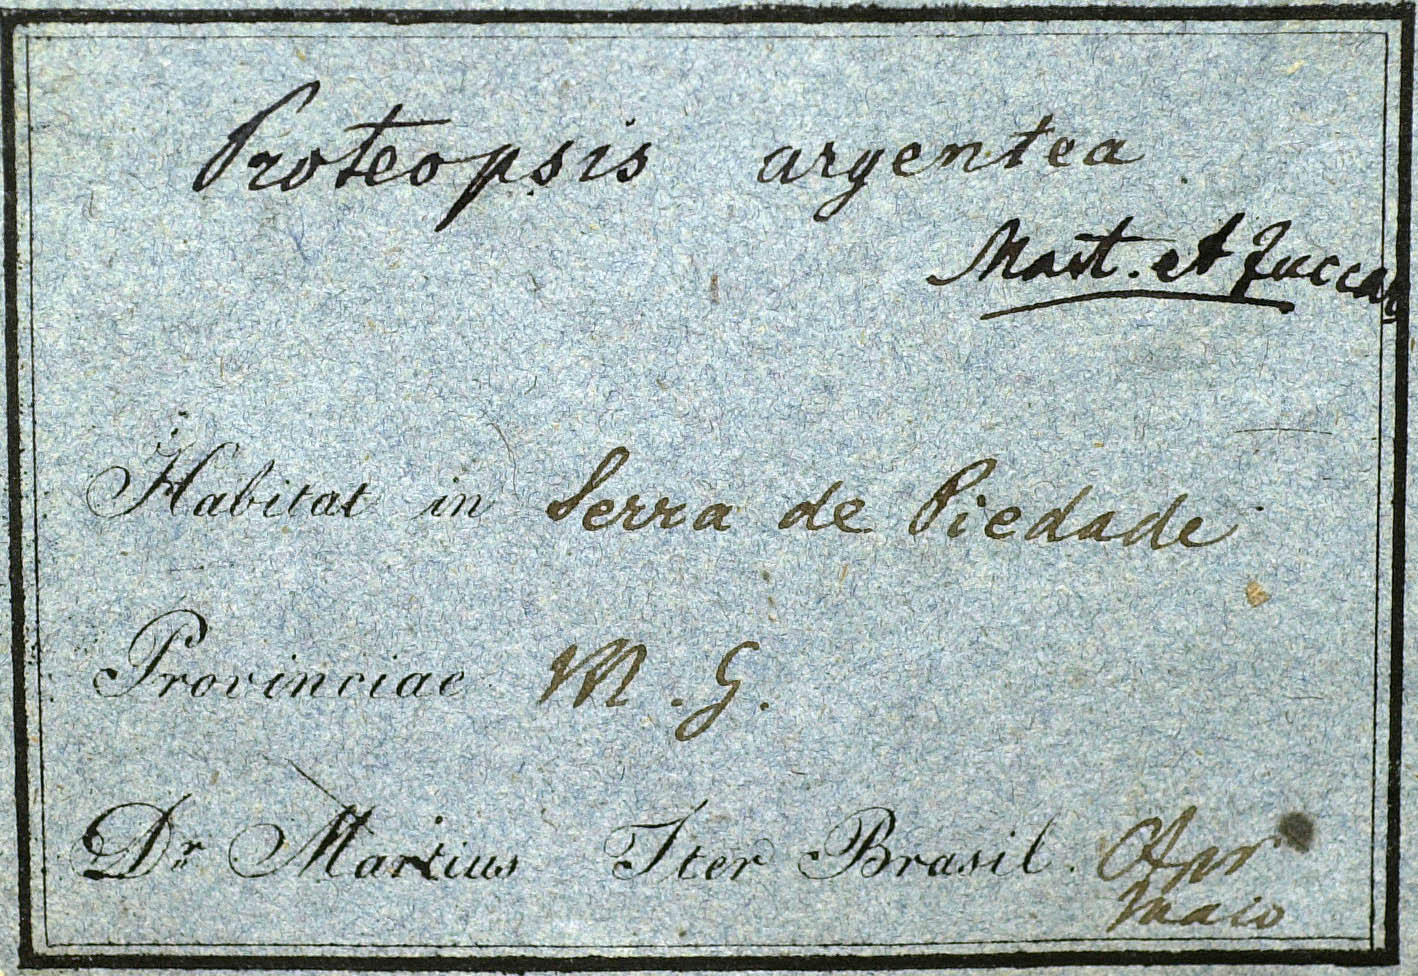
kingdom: Plantae
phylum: Tracheophyta
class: Magnoliopsida
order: Asterales
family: Asteraceae
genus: Proteopsis
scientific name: Proteopsis argentea
